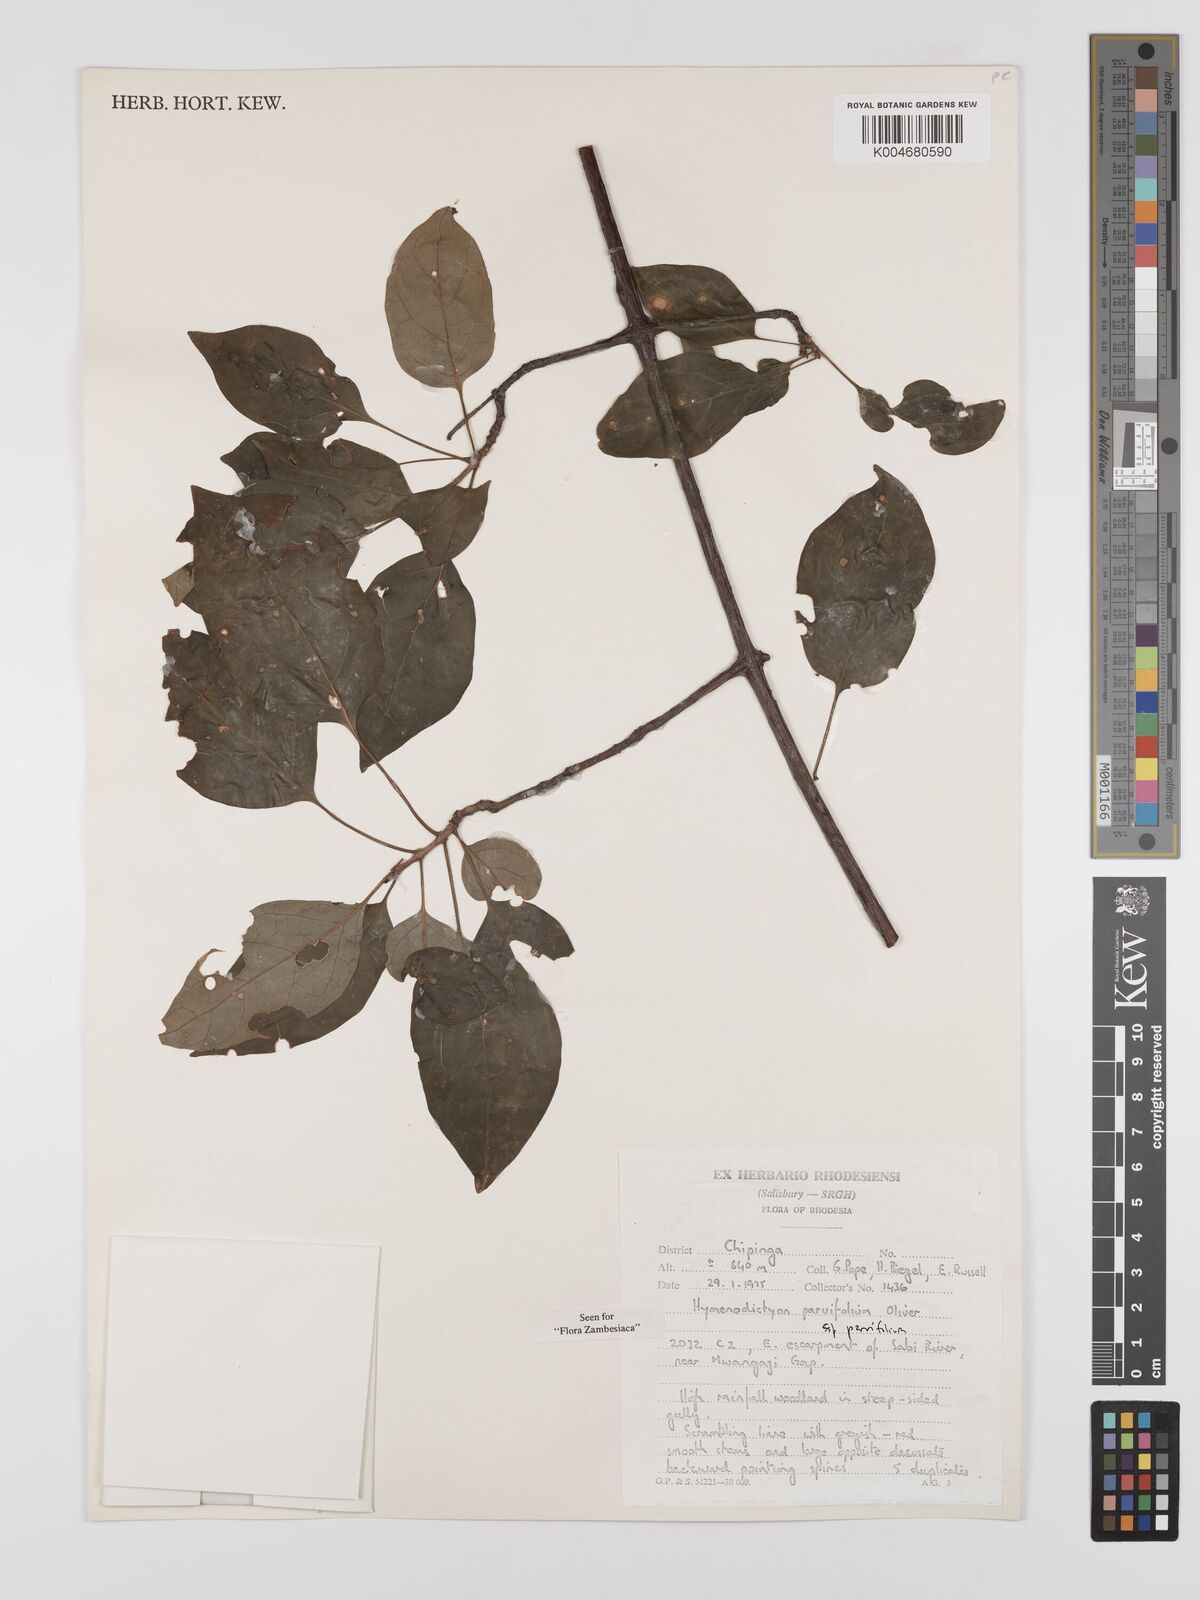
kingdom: Plantae
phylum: Tracheophyta
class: Magnoliopsida
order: Gentianales
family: Rubiaceae
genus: Hymenodictyon
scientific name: Hymenodictyon parvifolium
